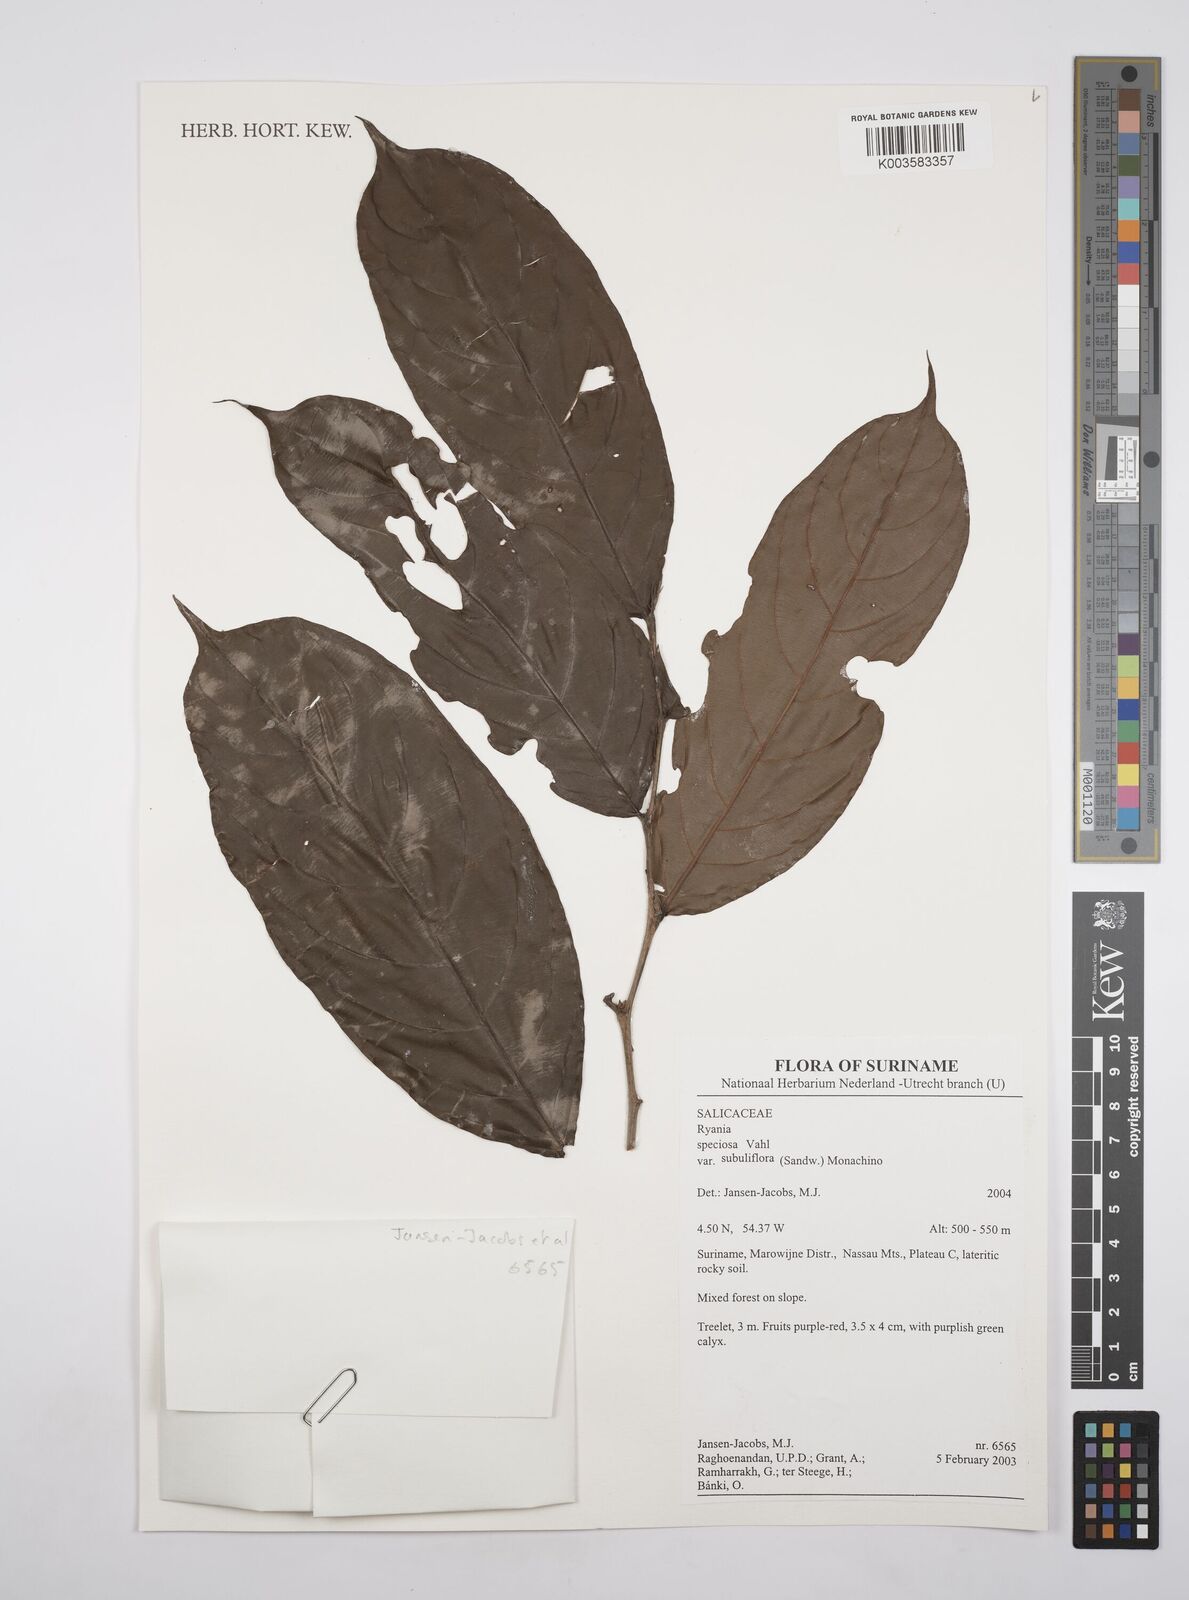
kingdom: Plantae
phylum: Tracheophyta
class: Magnoliopsida
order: Malpighiales
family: Salicaceae
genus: Ryania
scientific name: Ryania speciosa
